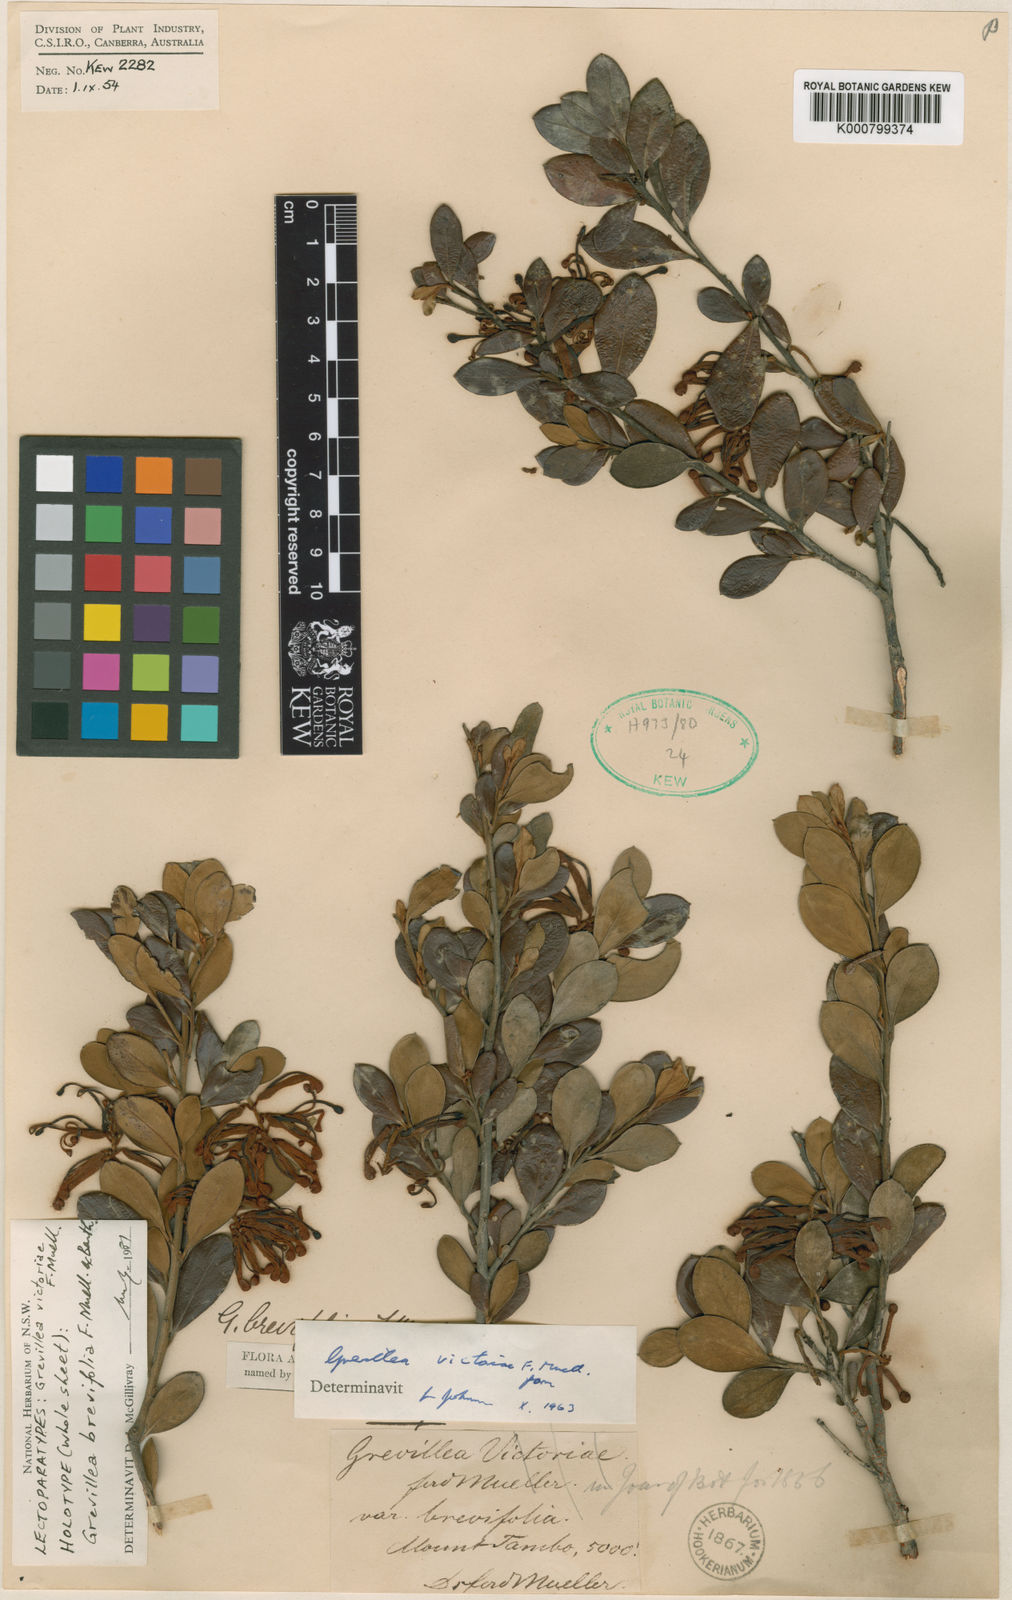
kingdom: Plantae
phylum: Tracheophyta
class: Magnoliopsida
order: Proteales
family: Proteaceae
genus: Grevillea
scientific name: Grevillea victoriae
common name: Royal grevillea
